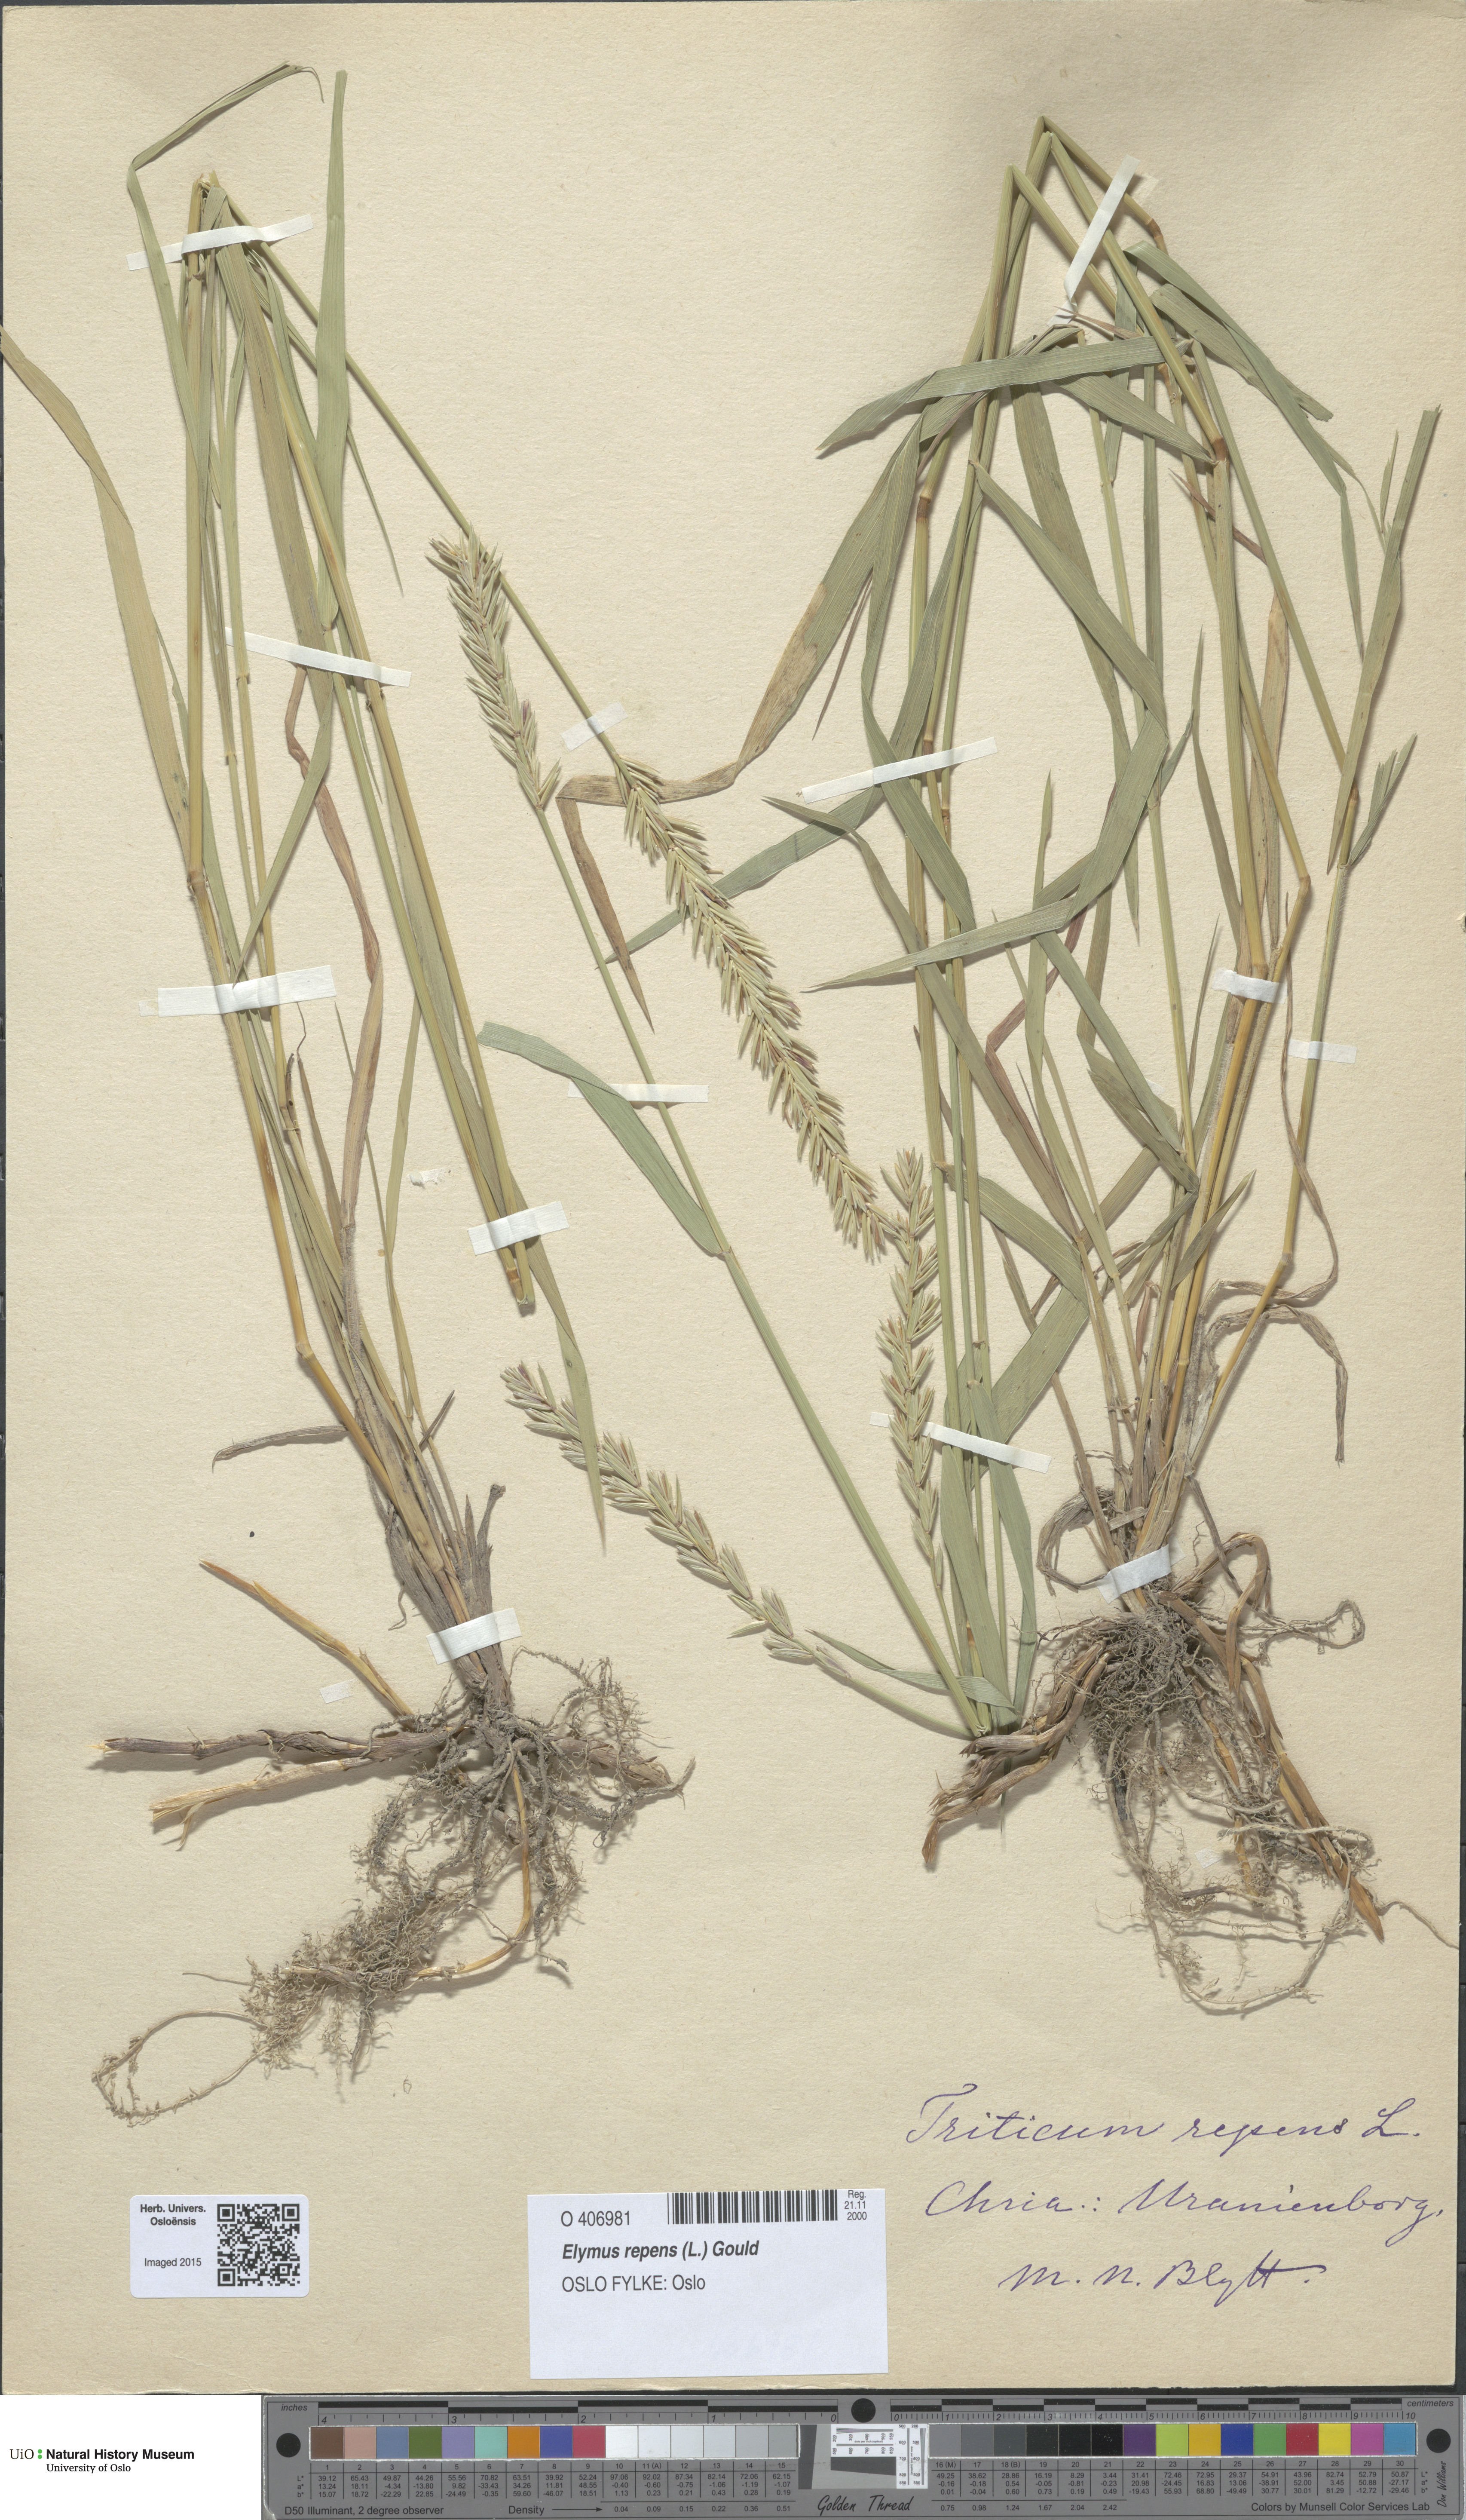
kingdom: Plantae
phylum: Tracheophyta
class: Liliopsida
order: Poales
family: Poaceae
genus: Elymus
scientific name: Elymus repens
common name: Quackgrass
